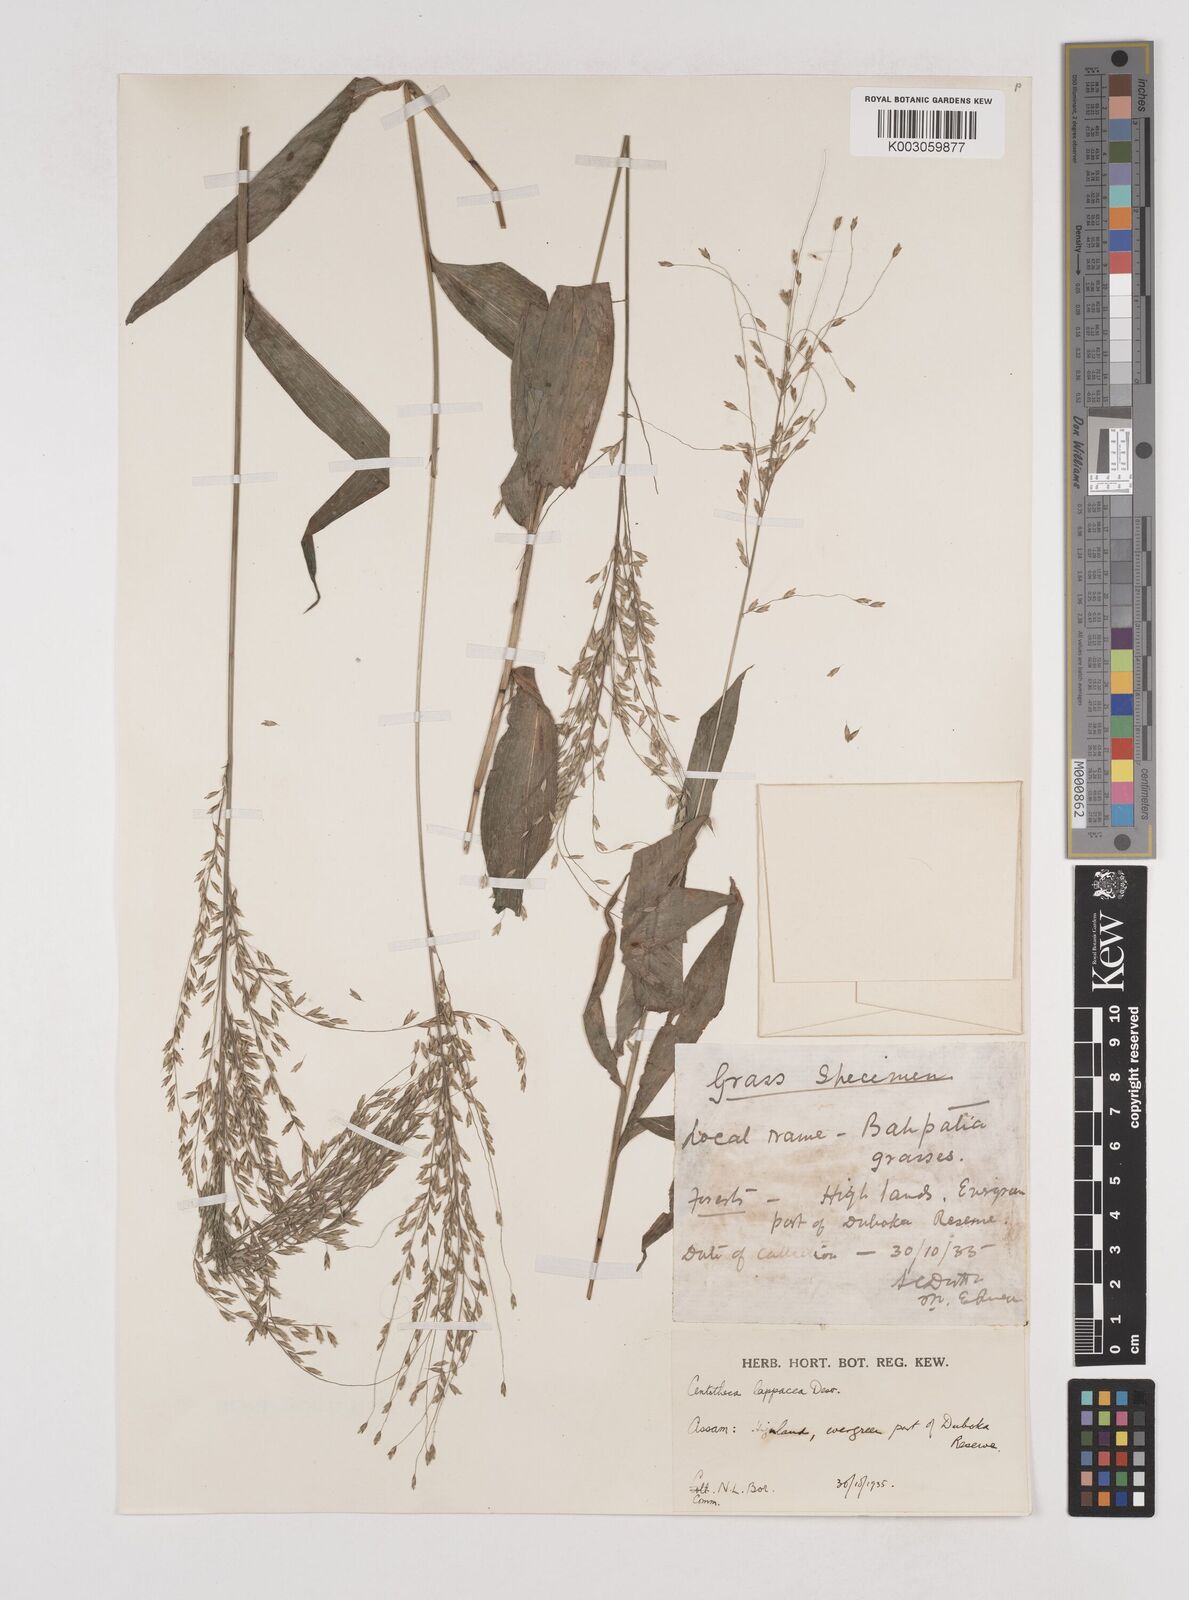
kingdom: Plantae
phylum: Tracheophyta
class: Liliopsida
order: Poales
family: Poaceae
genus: Centotheca
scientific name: Centotheca lappacea
